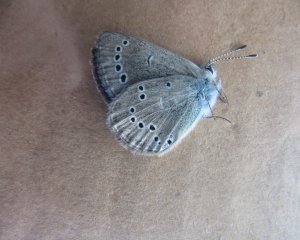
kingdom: Animalia
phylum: Arthropoda
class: Insecta
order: Lepidoptera
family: Lycaenidae
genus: Glaucopsyche
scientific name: Glaucopsyche lygdamus
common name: Silvery Blue
